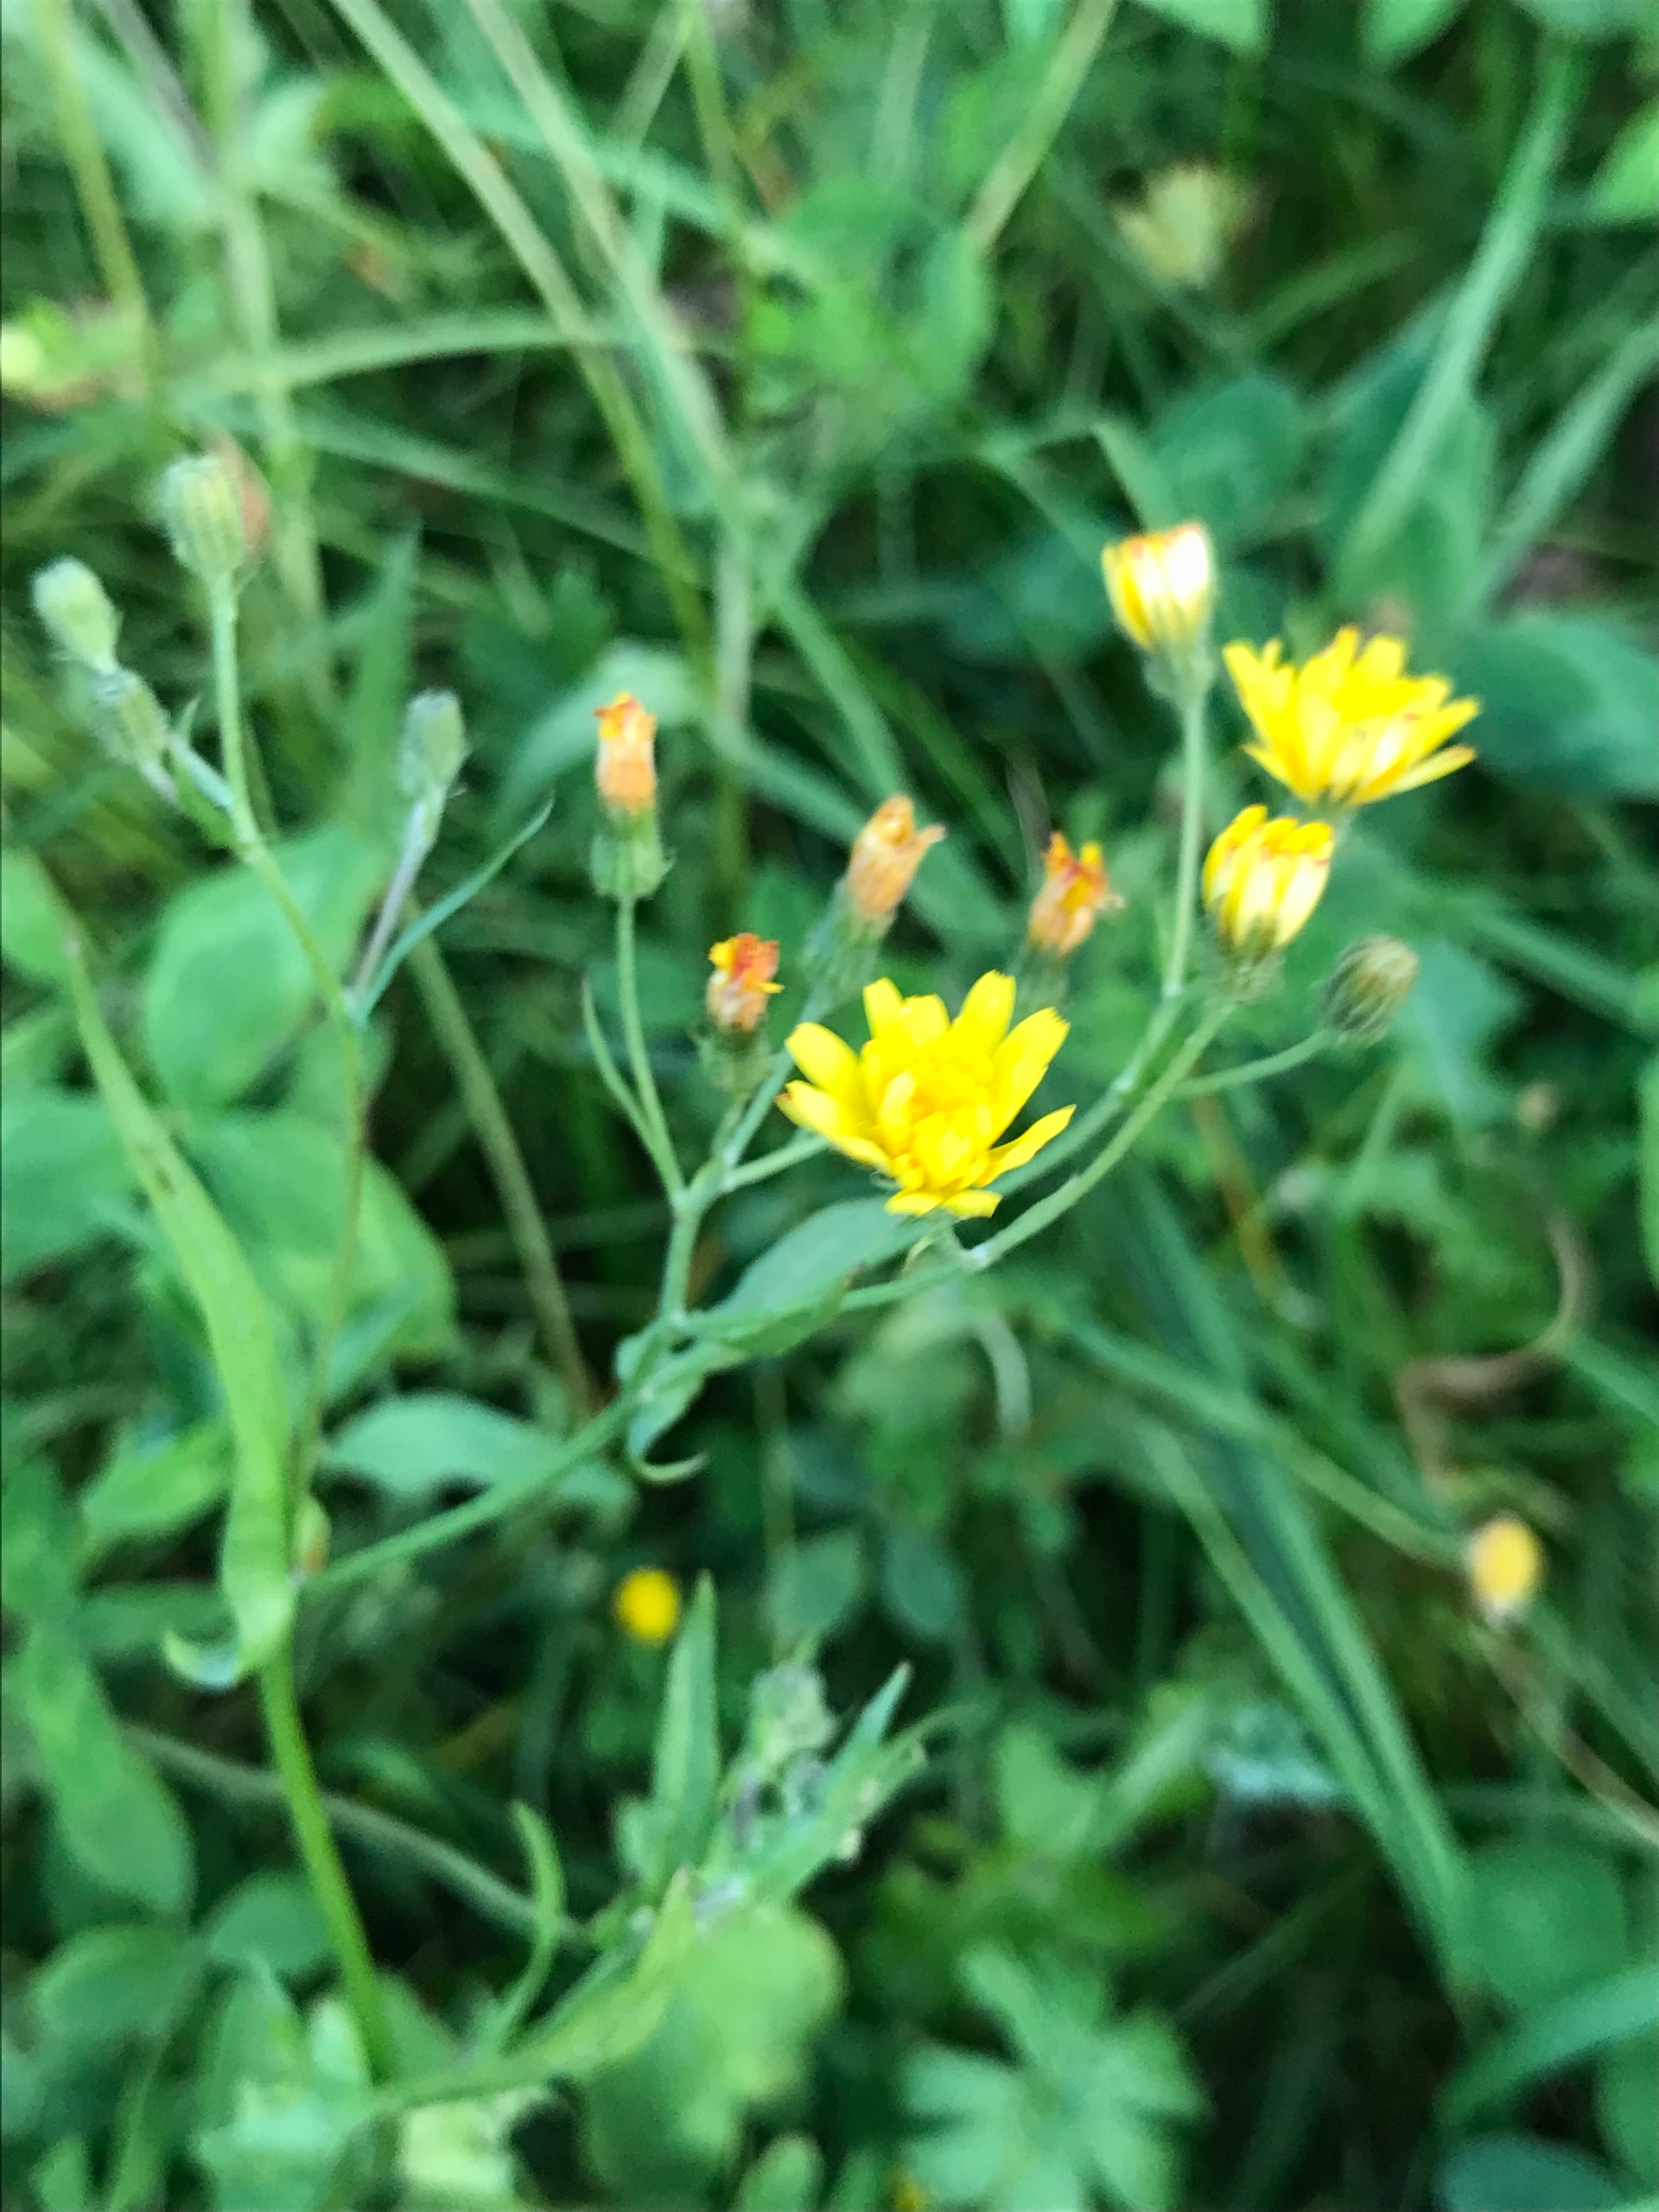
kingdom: Plantae
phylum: Tracheophyta
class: Magnoliopsida
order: Asterales
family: Asteraceae
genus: Crepis
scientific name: Crepis capillaris
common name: Grøn høgeskæg
